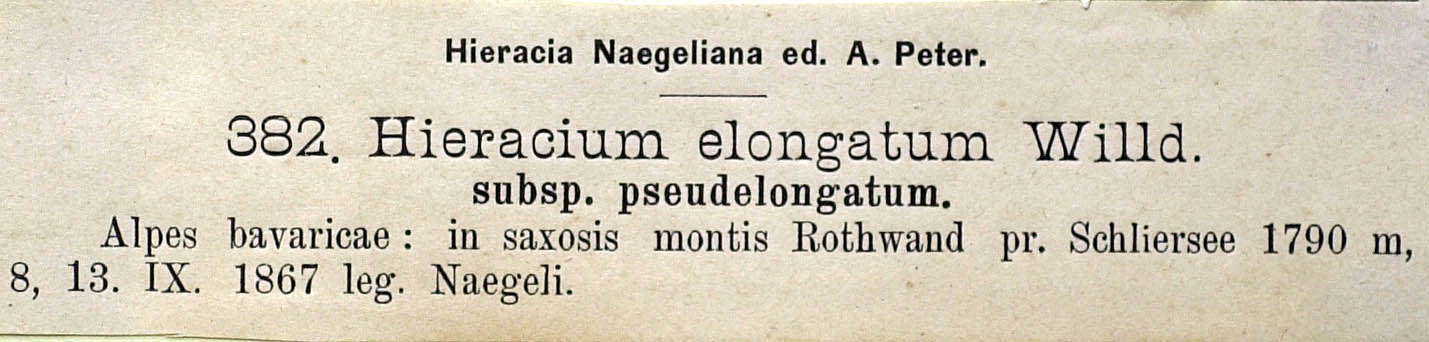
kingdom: Plantae
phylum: Tracheophyta
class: Magnoliopsida
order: Asterales
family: Asteraceae
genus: Hieracium
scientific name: Hieracium valdepilosum
